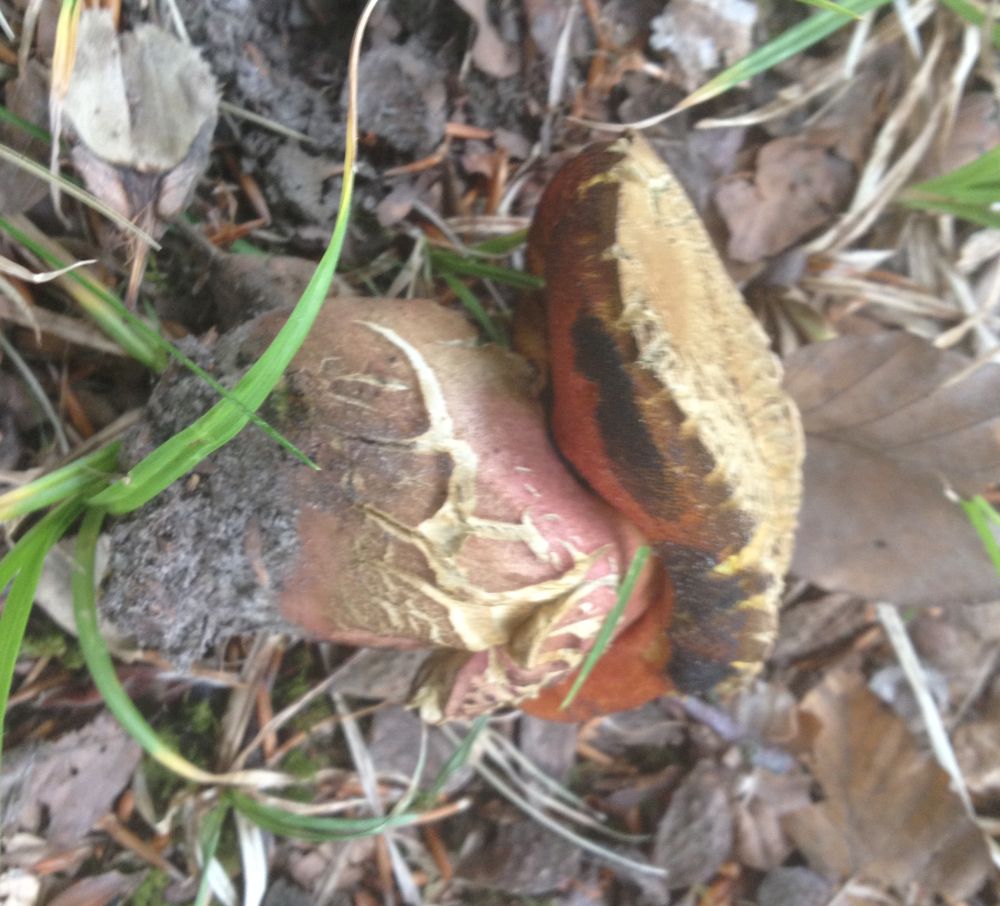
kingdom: Fungi
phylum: Basidiomycota
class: Agaricomycetes
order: Boletales
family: Boletaceae
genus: Neoboletus
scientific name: Neoboletus erythropus
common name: punktstokket indigorørhat
